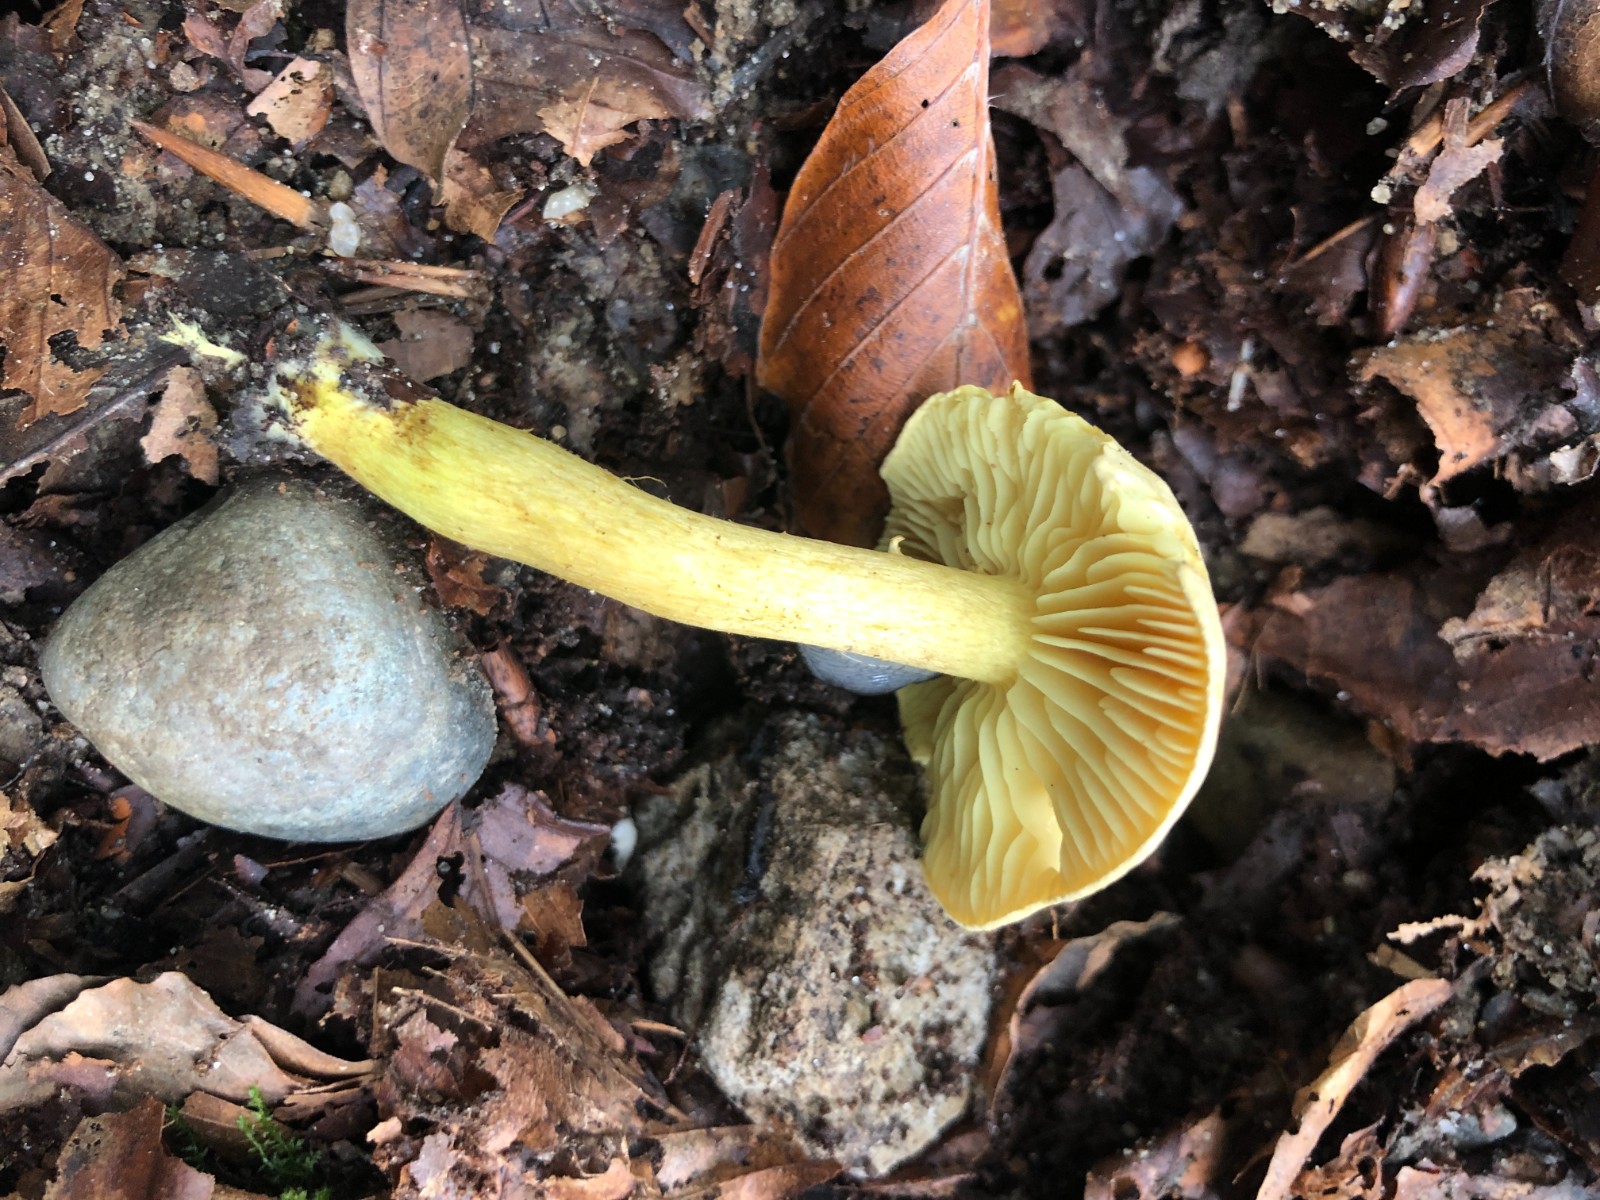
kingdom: Fungi
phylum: Basidiomycota
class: Agaricomycetes
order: Agaricales
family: Tricholomataceae
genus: Tricholoma
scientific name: Tricholoma sulphureum
